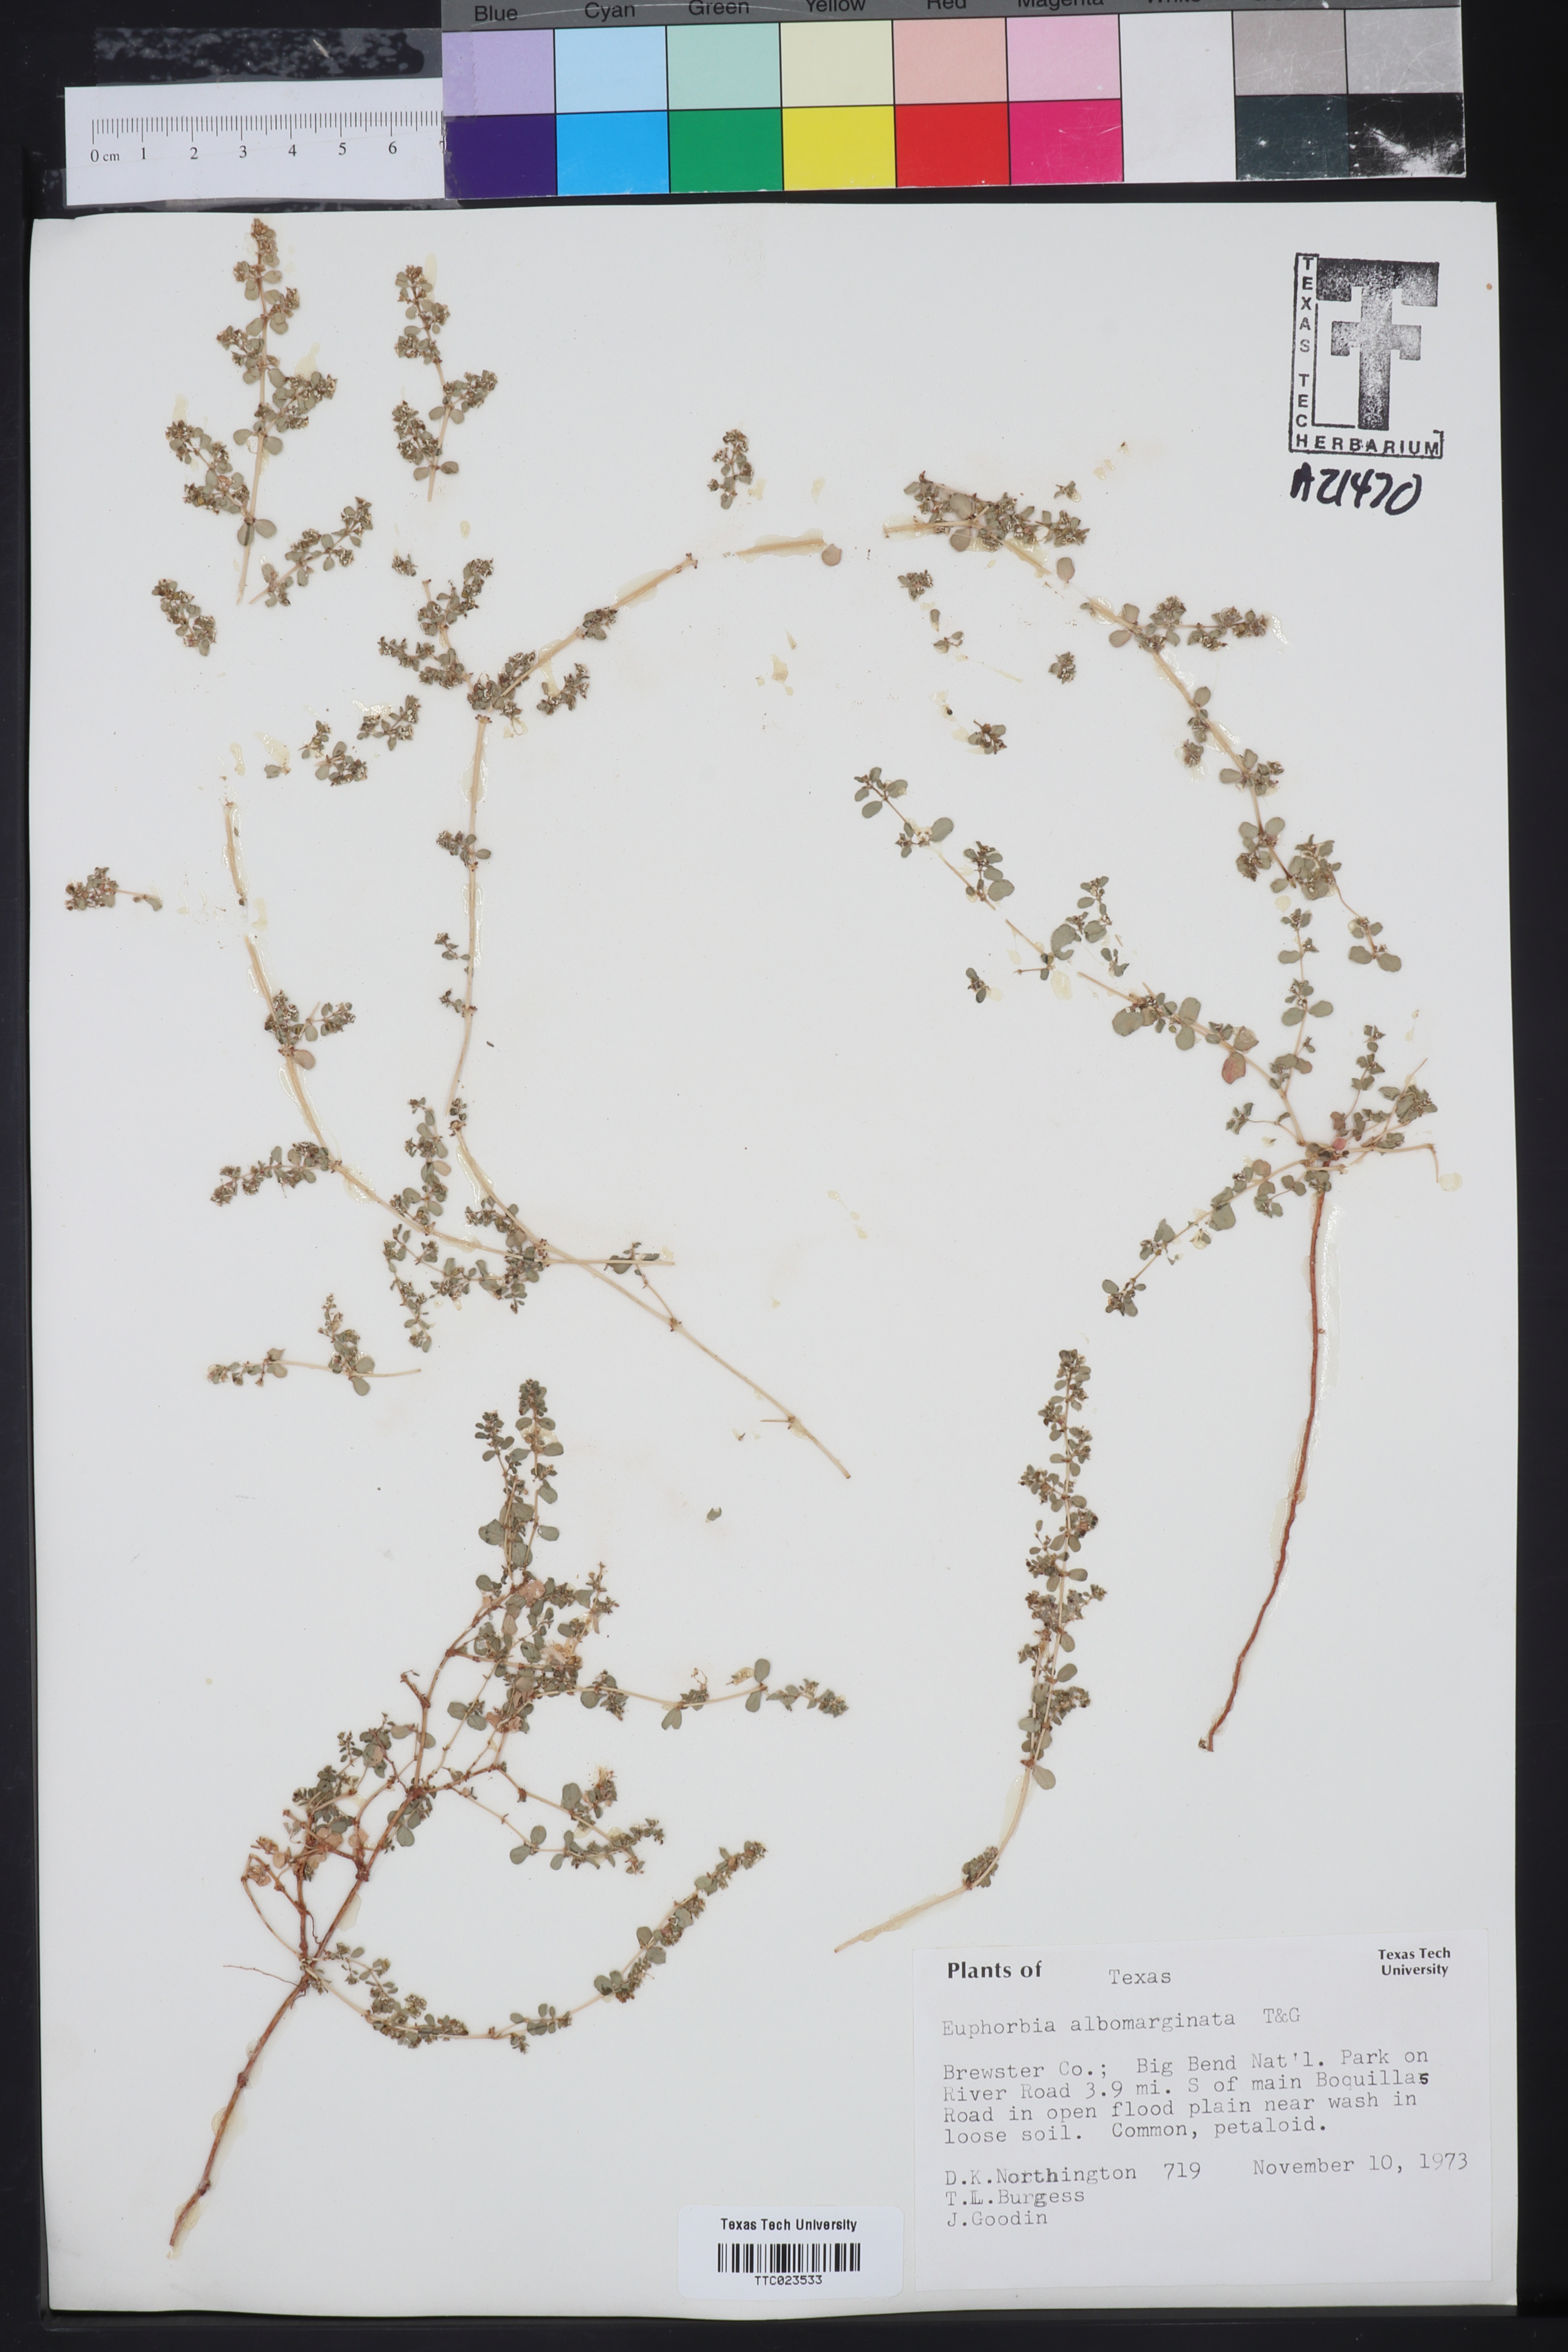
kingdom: Plantae
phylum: Tracheophyta
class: Magnoliopsida
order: Malpighiales
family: Euphorbiaceae
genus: Euphorbia
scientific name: Euphorbia albomarginata
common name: Whitemargin sandmat
